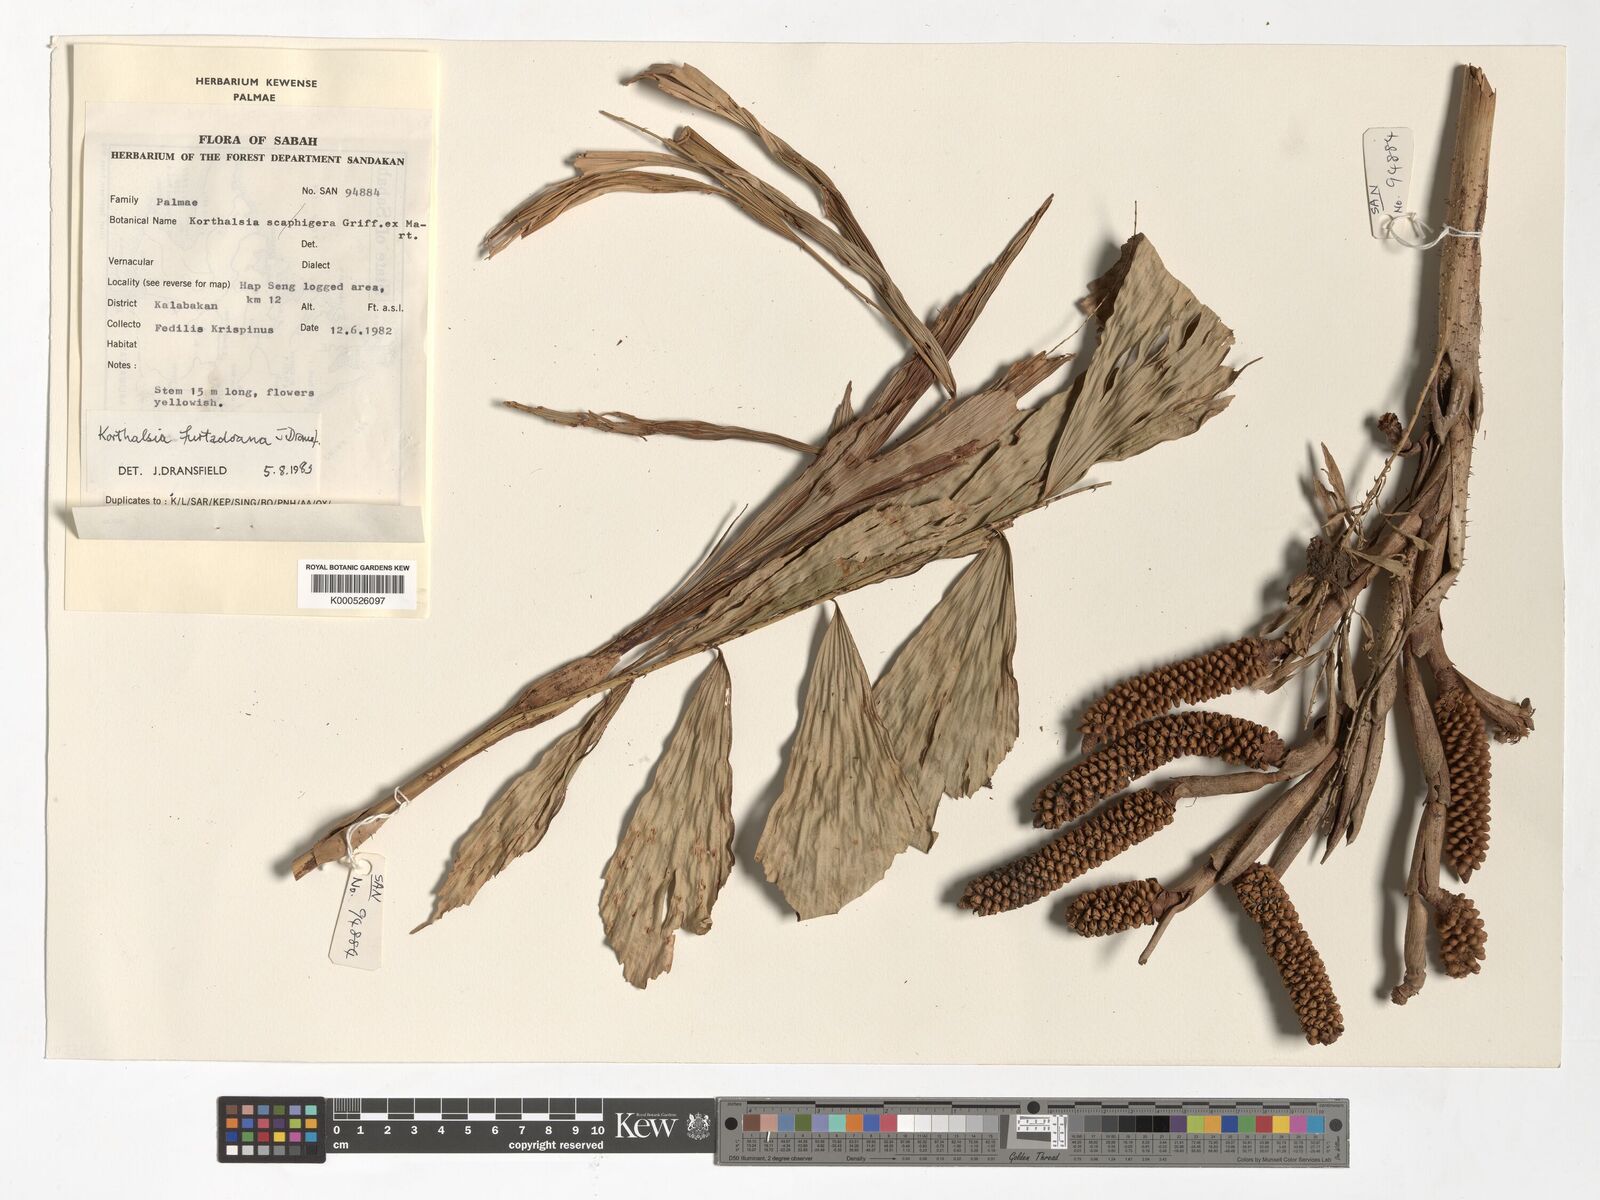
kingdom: Plantae
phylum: Tracheophyta
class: Liliopsida
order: Arecales
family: Arecaceae
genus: Korthalsia
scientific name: Korthalsia furtadoana
